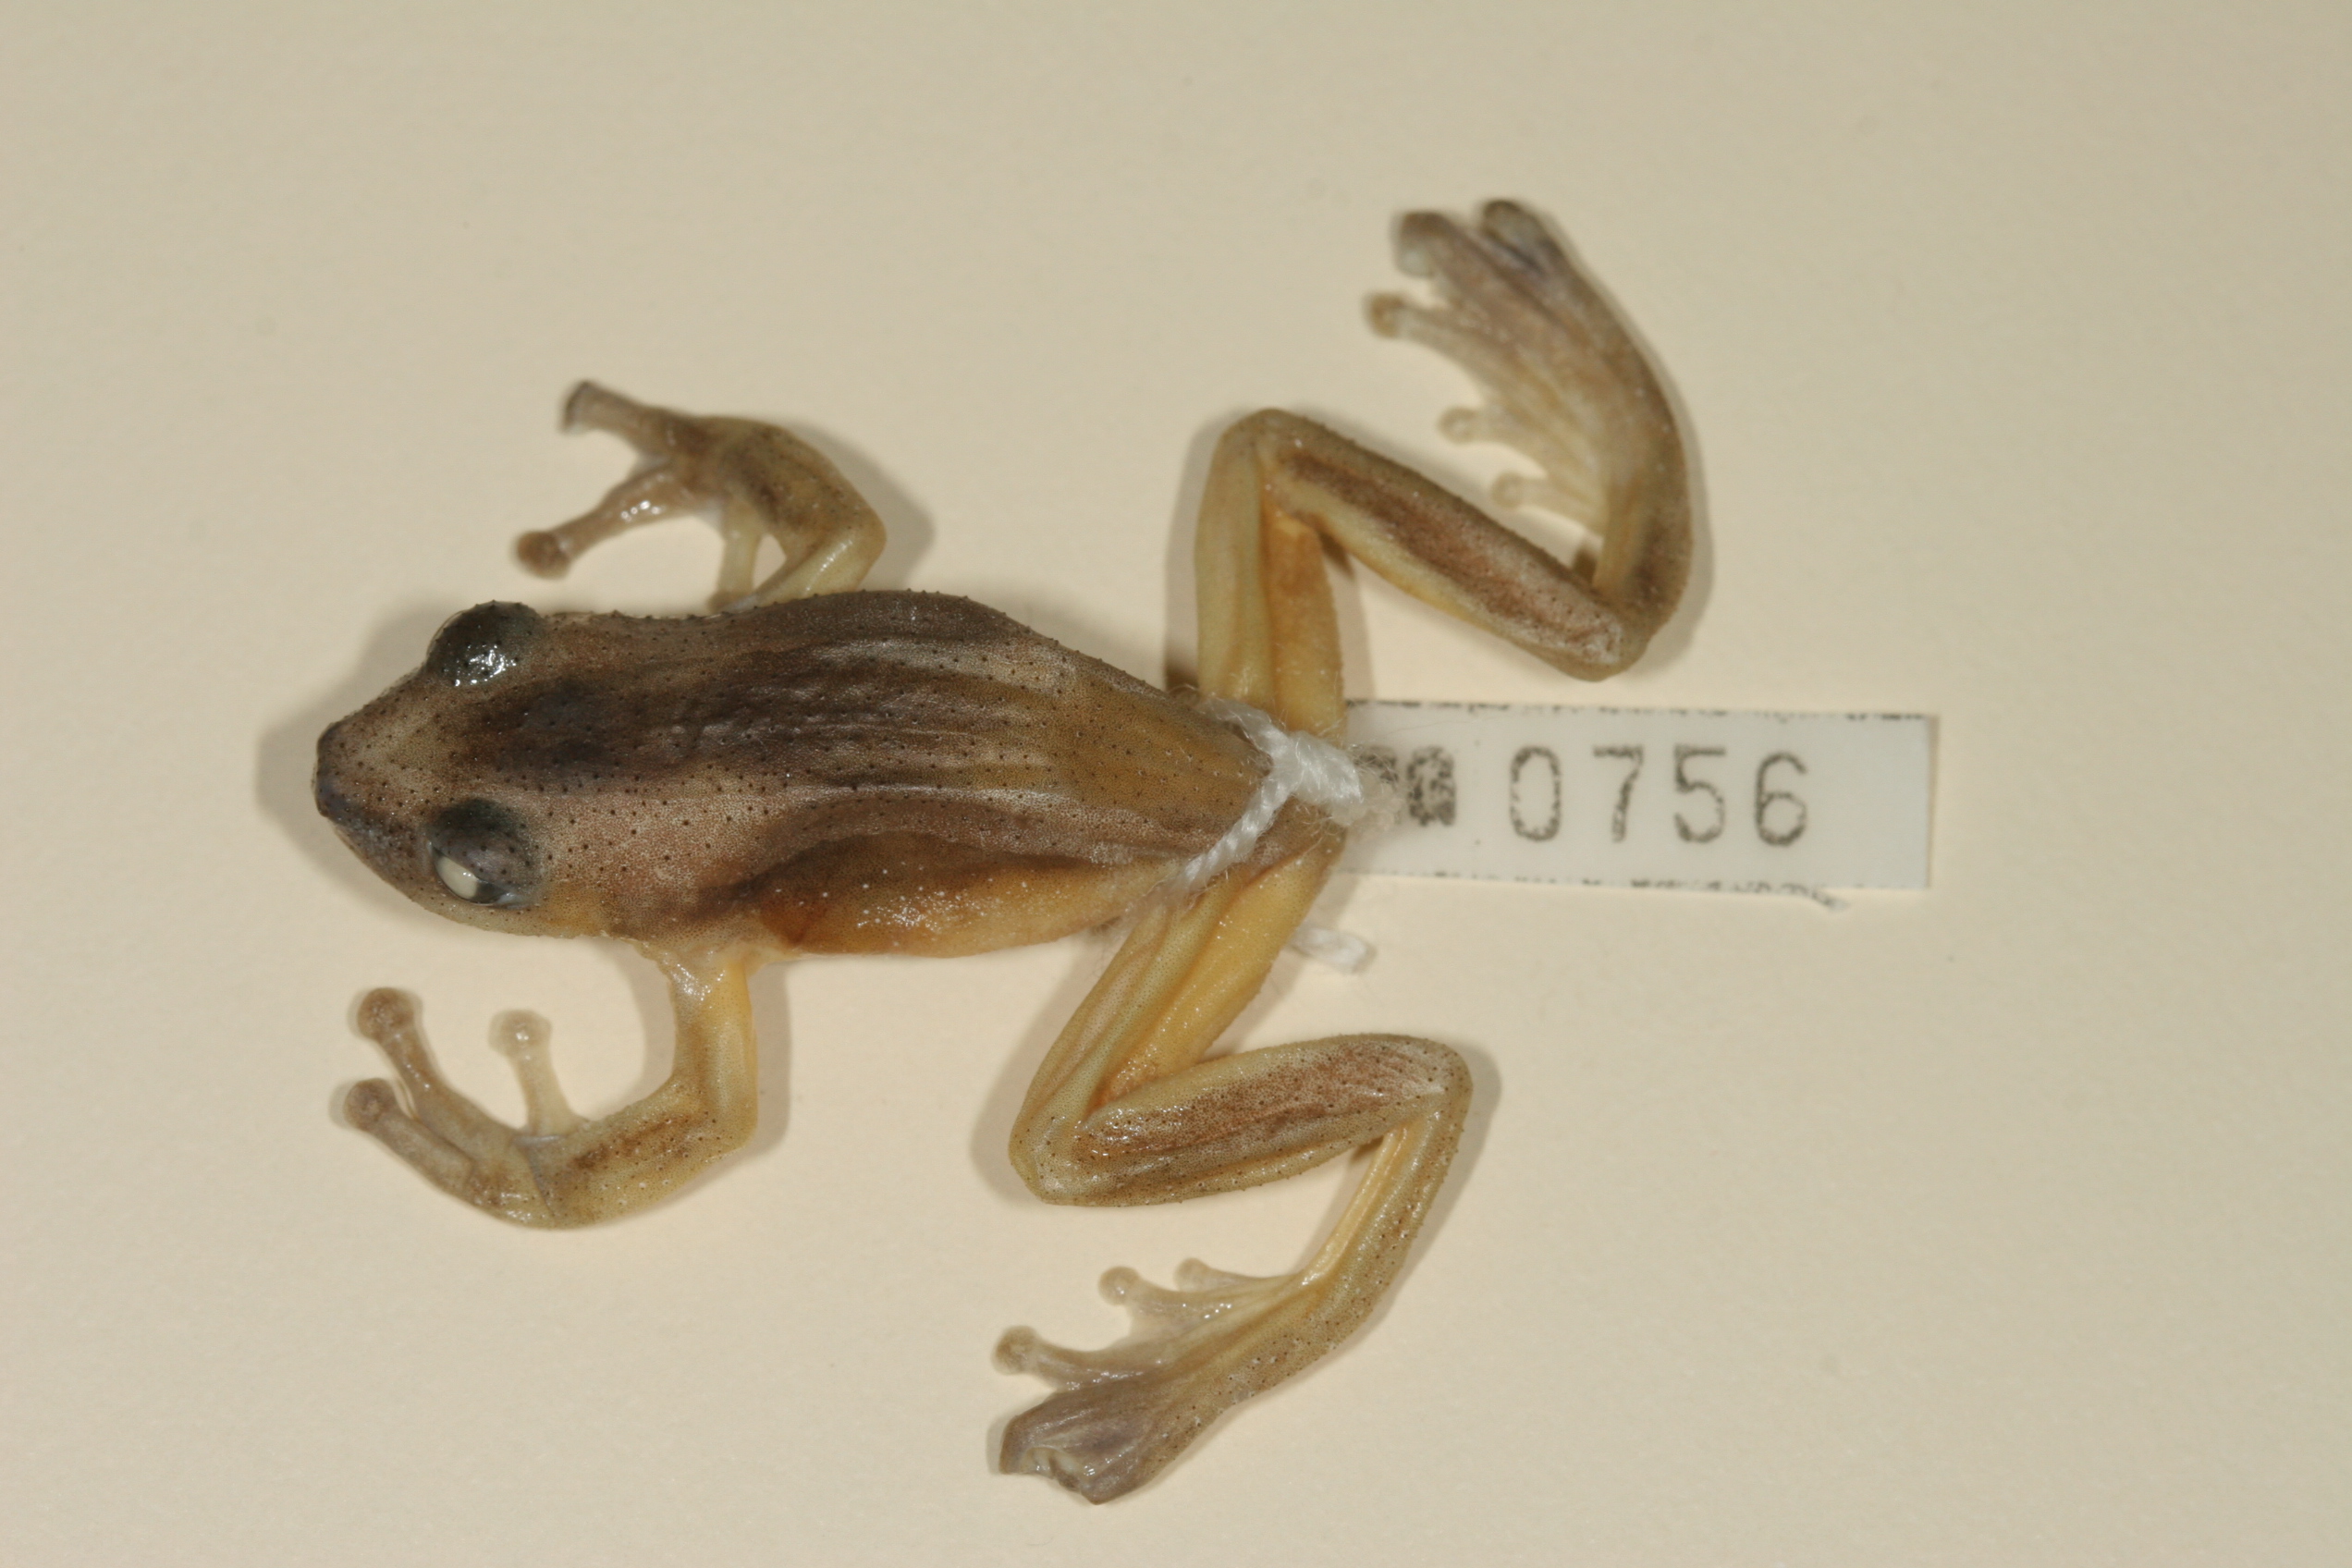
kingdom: Animalia
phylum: Chordata
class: Amphibia
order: Anura
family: Hyperoliidae
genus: Afrixalus
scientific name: Afrixalus fornasini
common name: Fornasini's spiny reed frog
